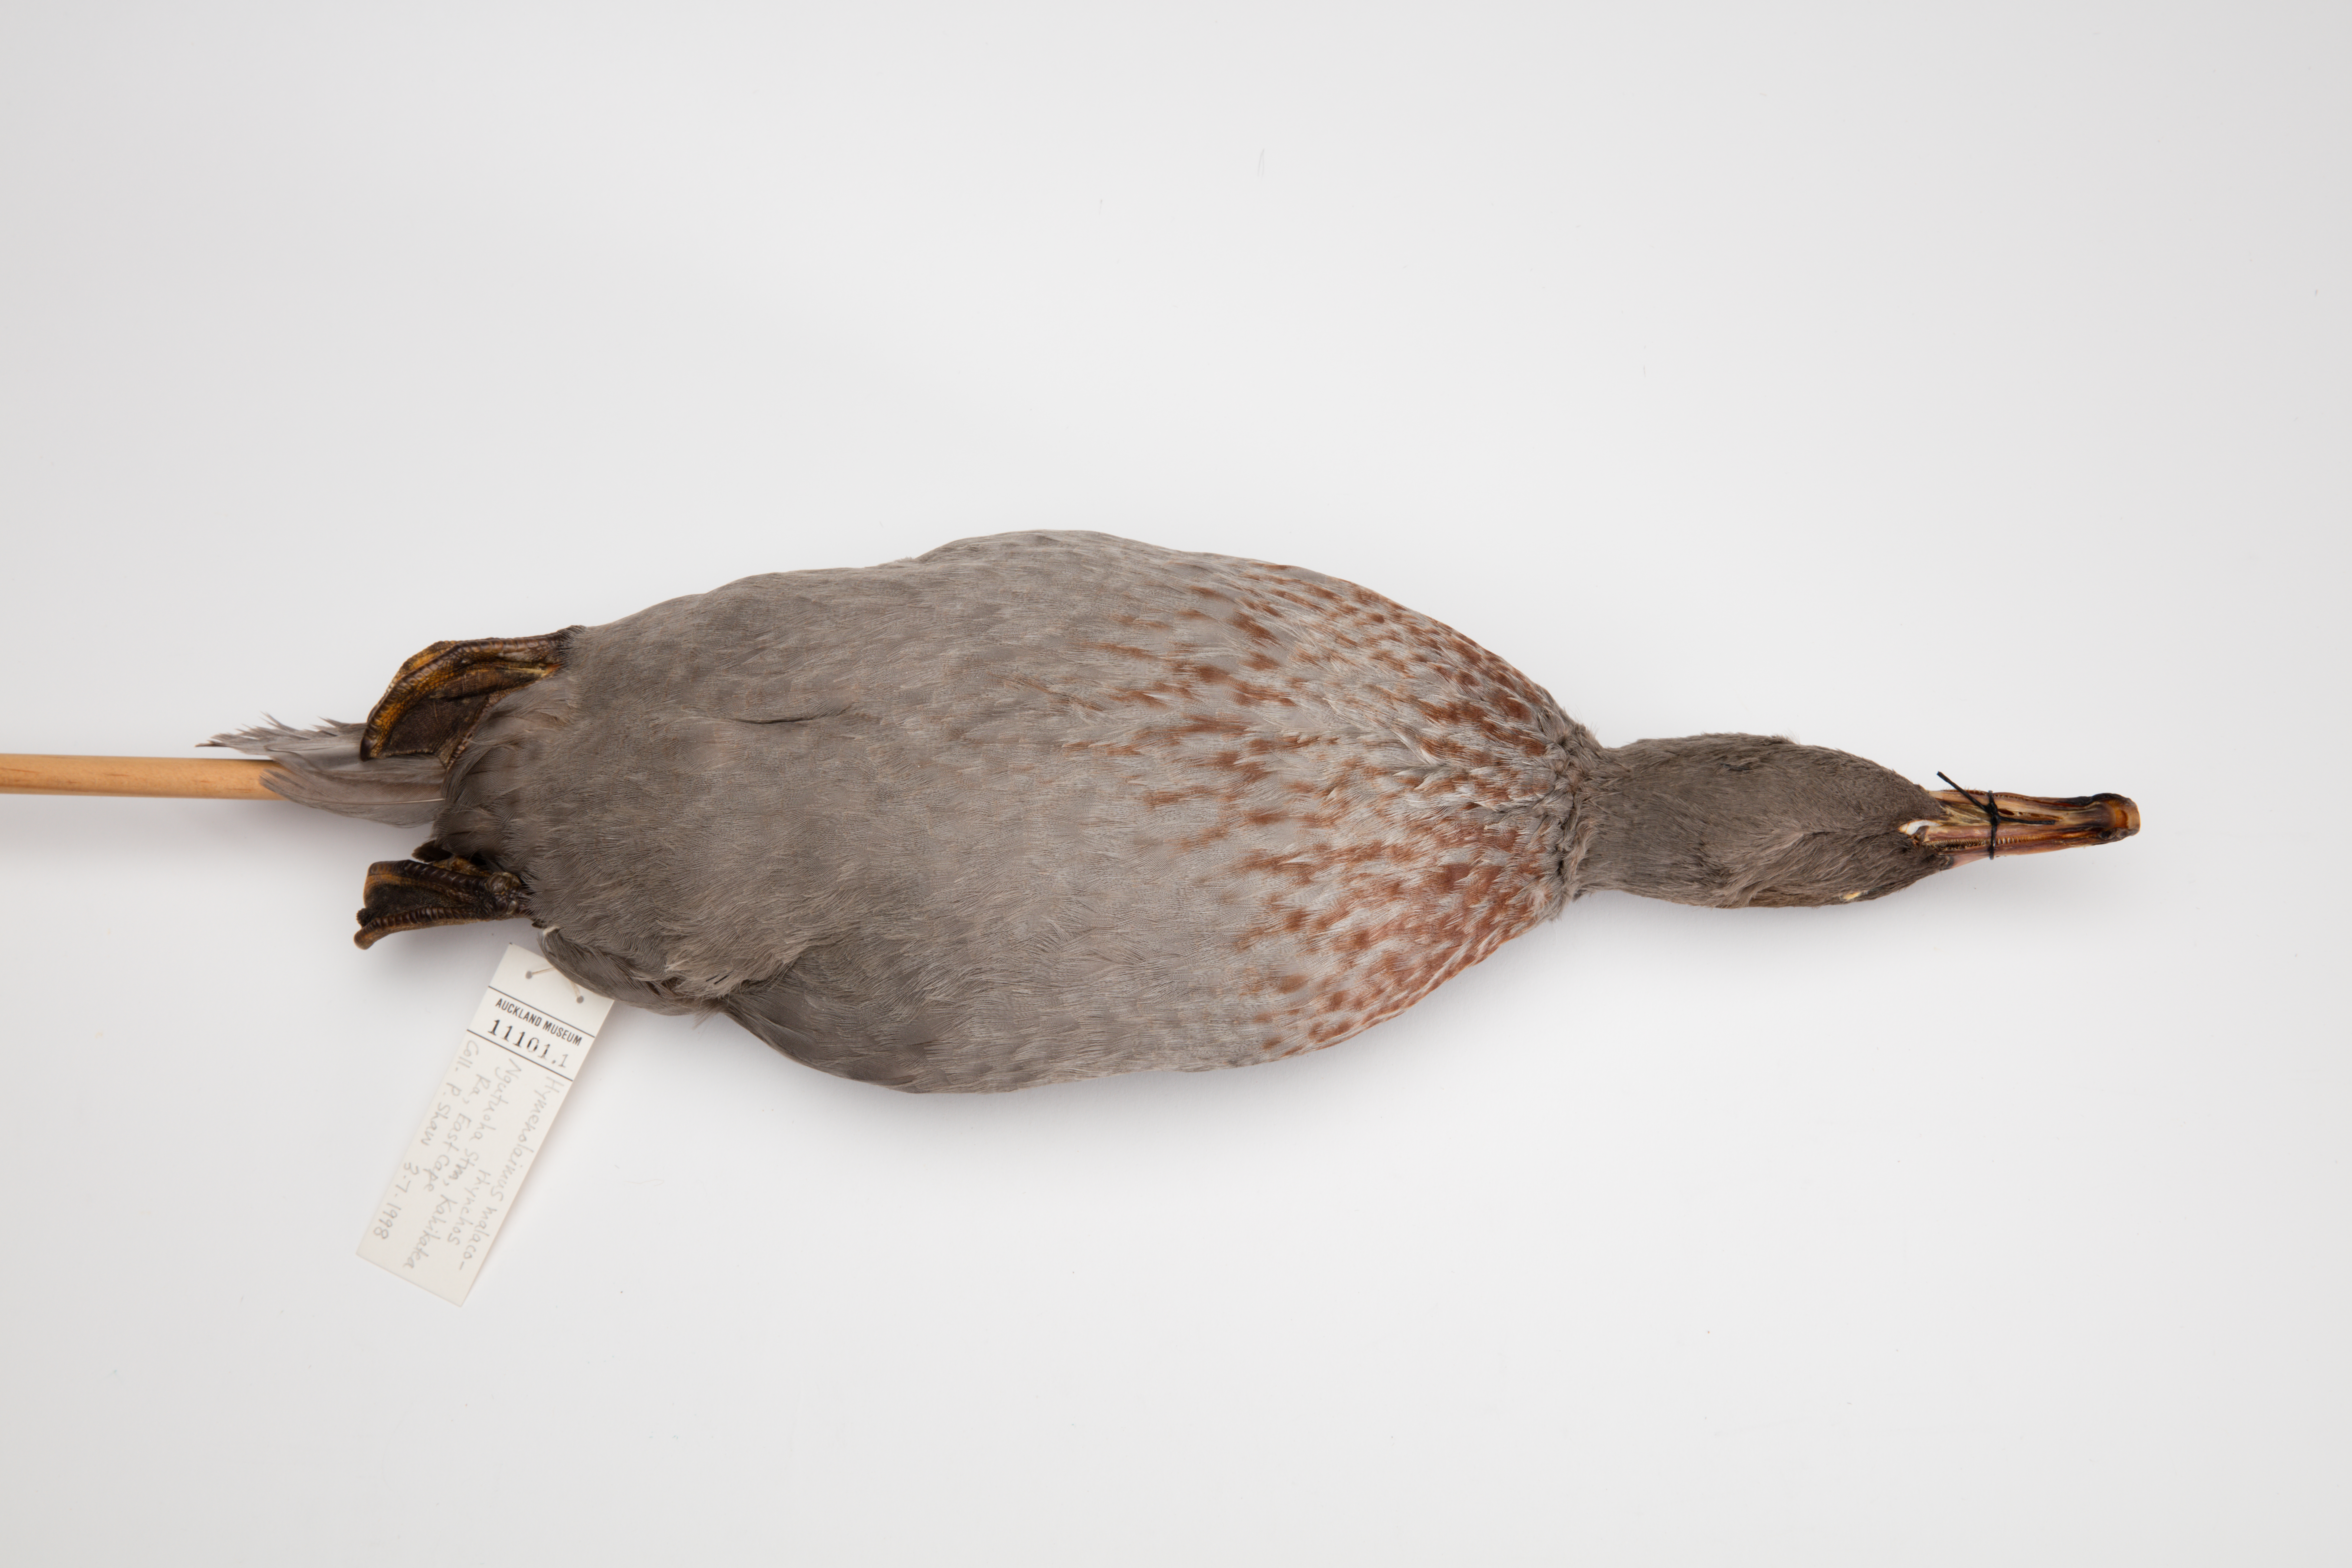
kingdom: Animalia
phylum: Chordata
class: Aves
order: Anseriformes
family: Anatidae
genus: Hymenolaimus
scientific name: Hymenolaimus malacorhynchos
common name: Blue duck
